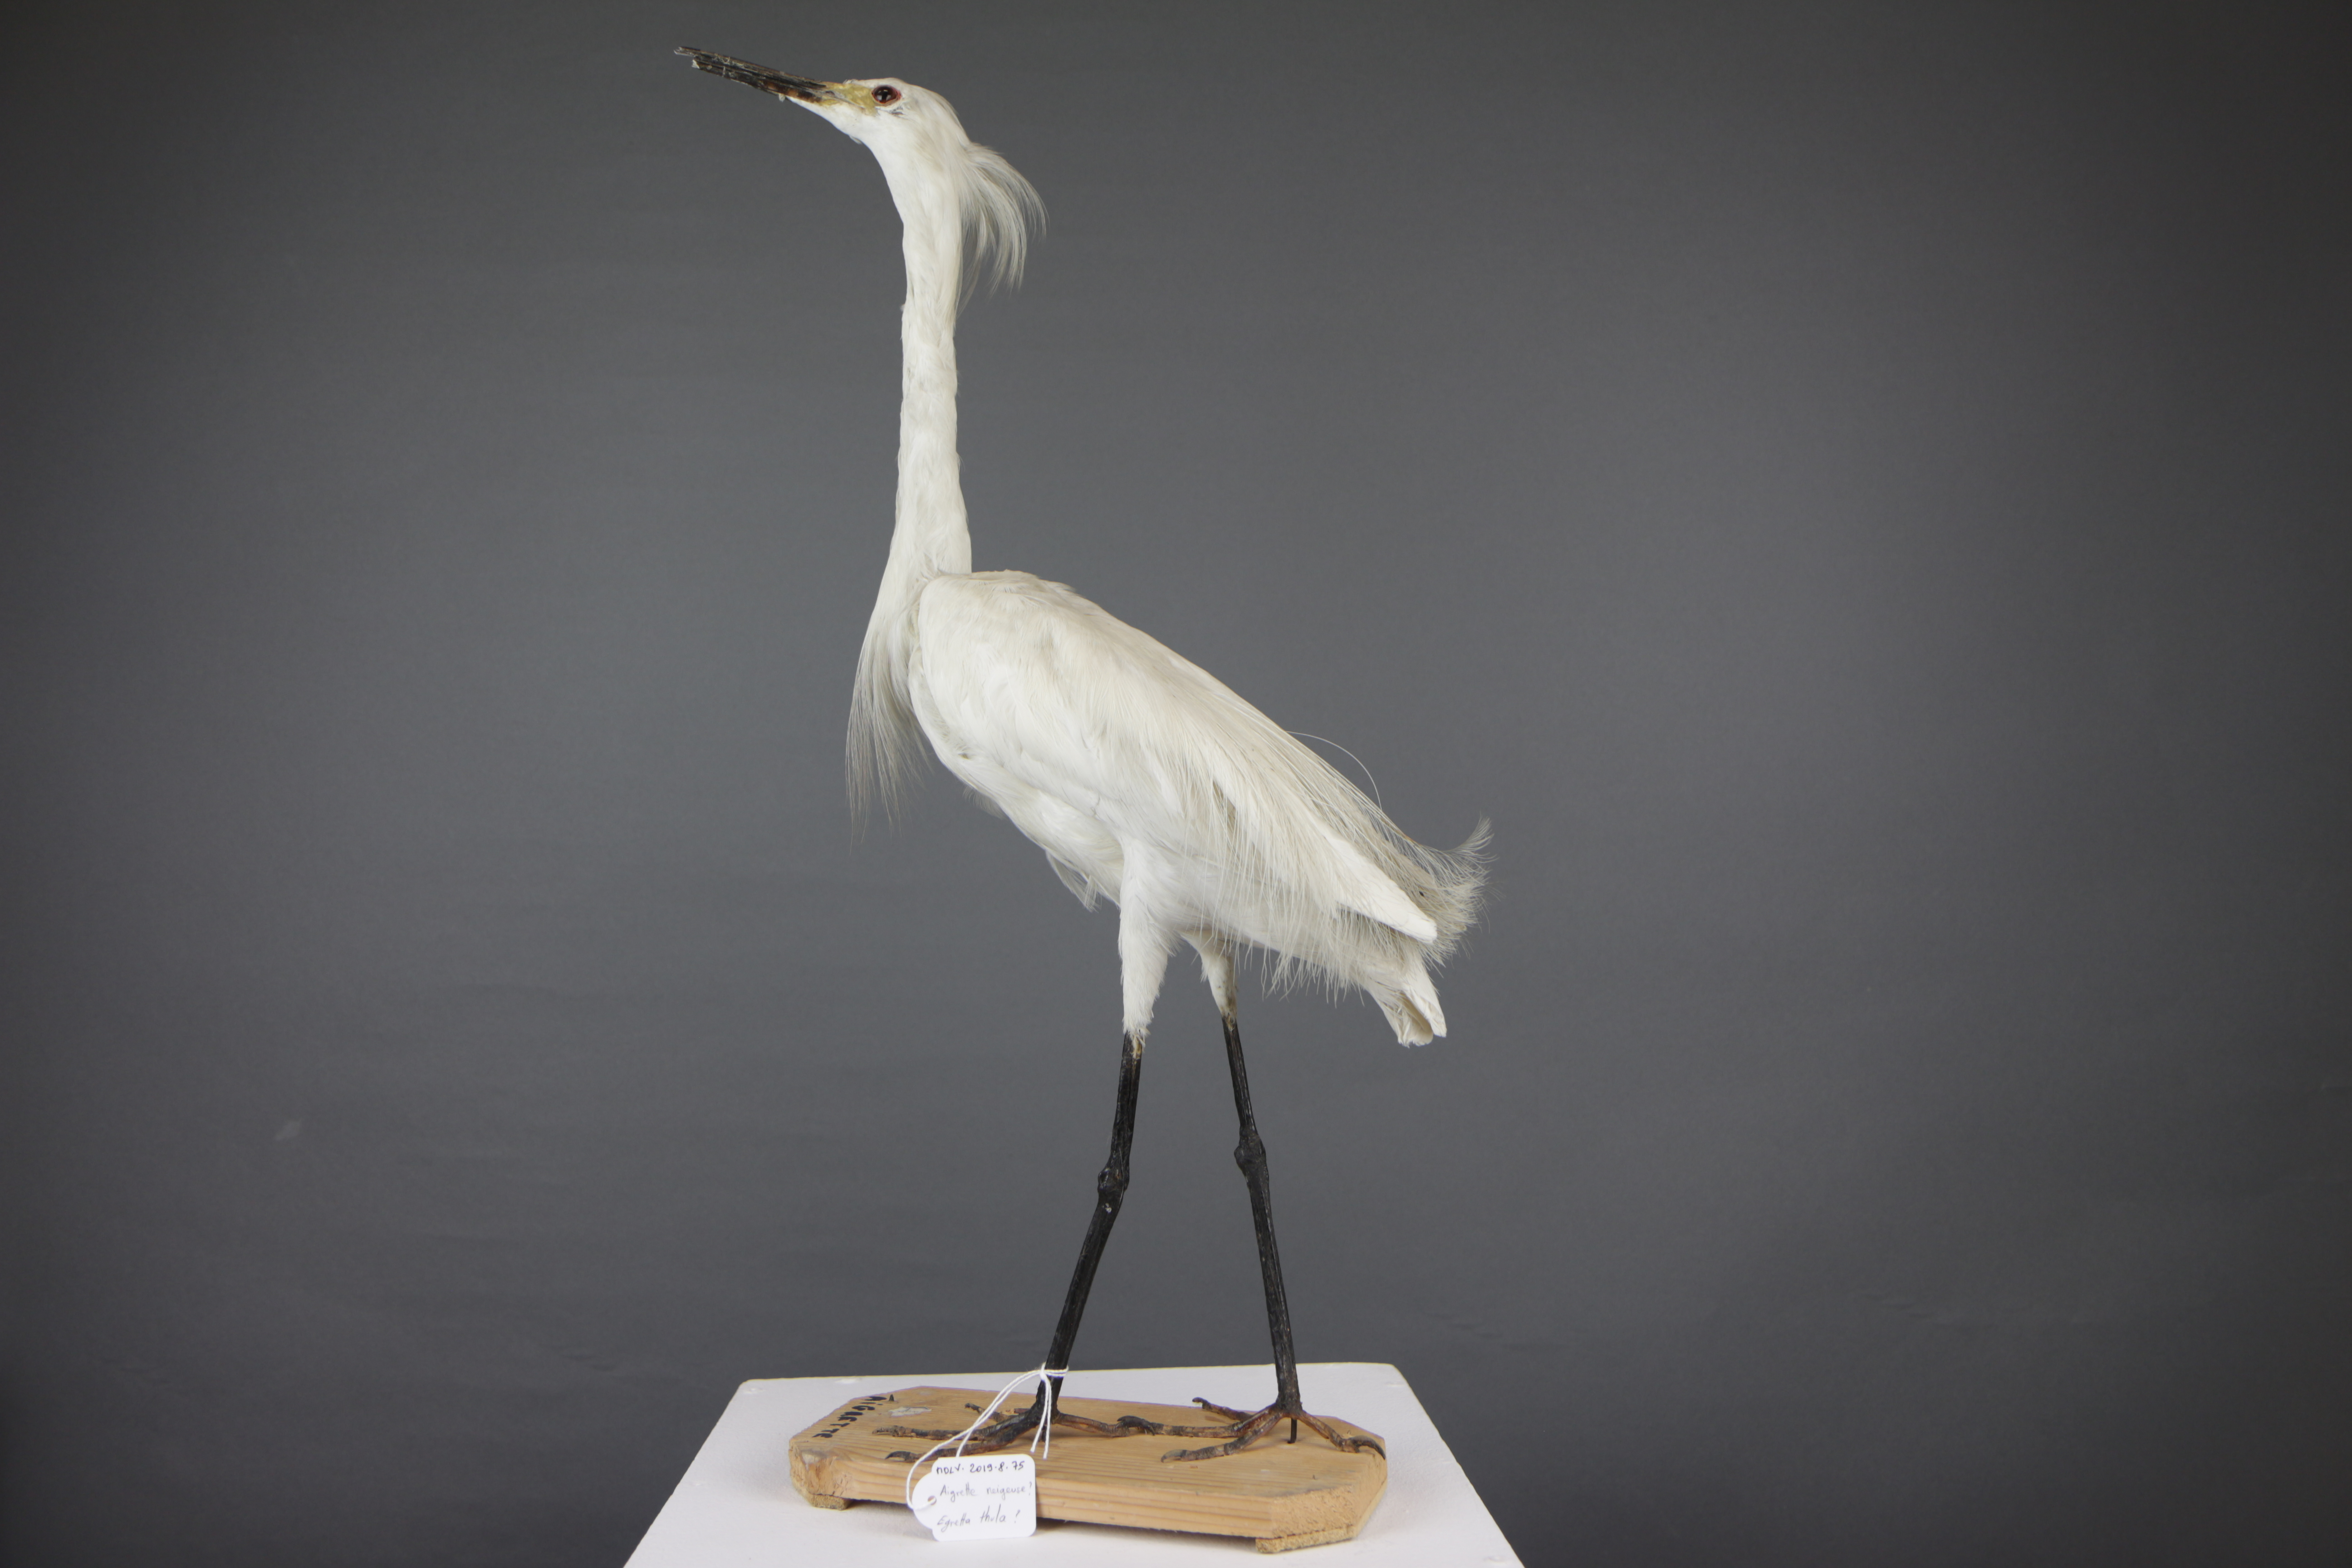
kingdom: Animalia
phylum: Chordata
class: Aves
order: Pelecaniformes
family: Ardeidae
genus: Egretta
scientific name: Egretta thula
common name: Snowy egret
